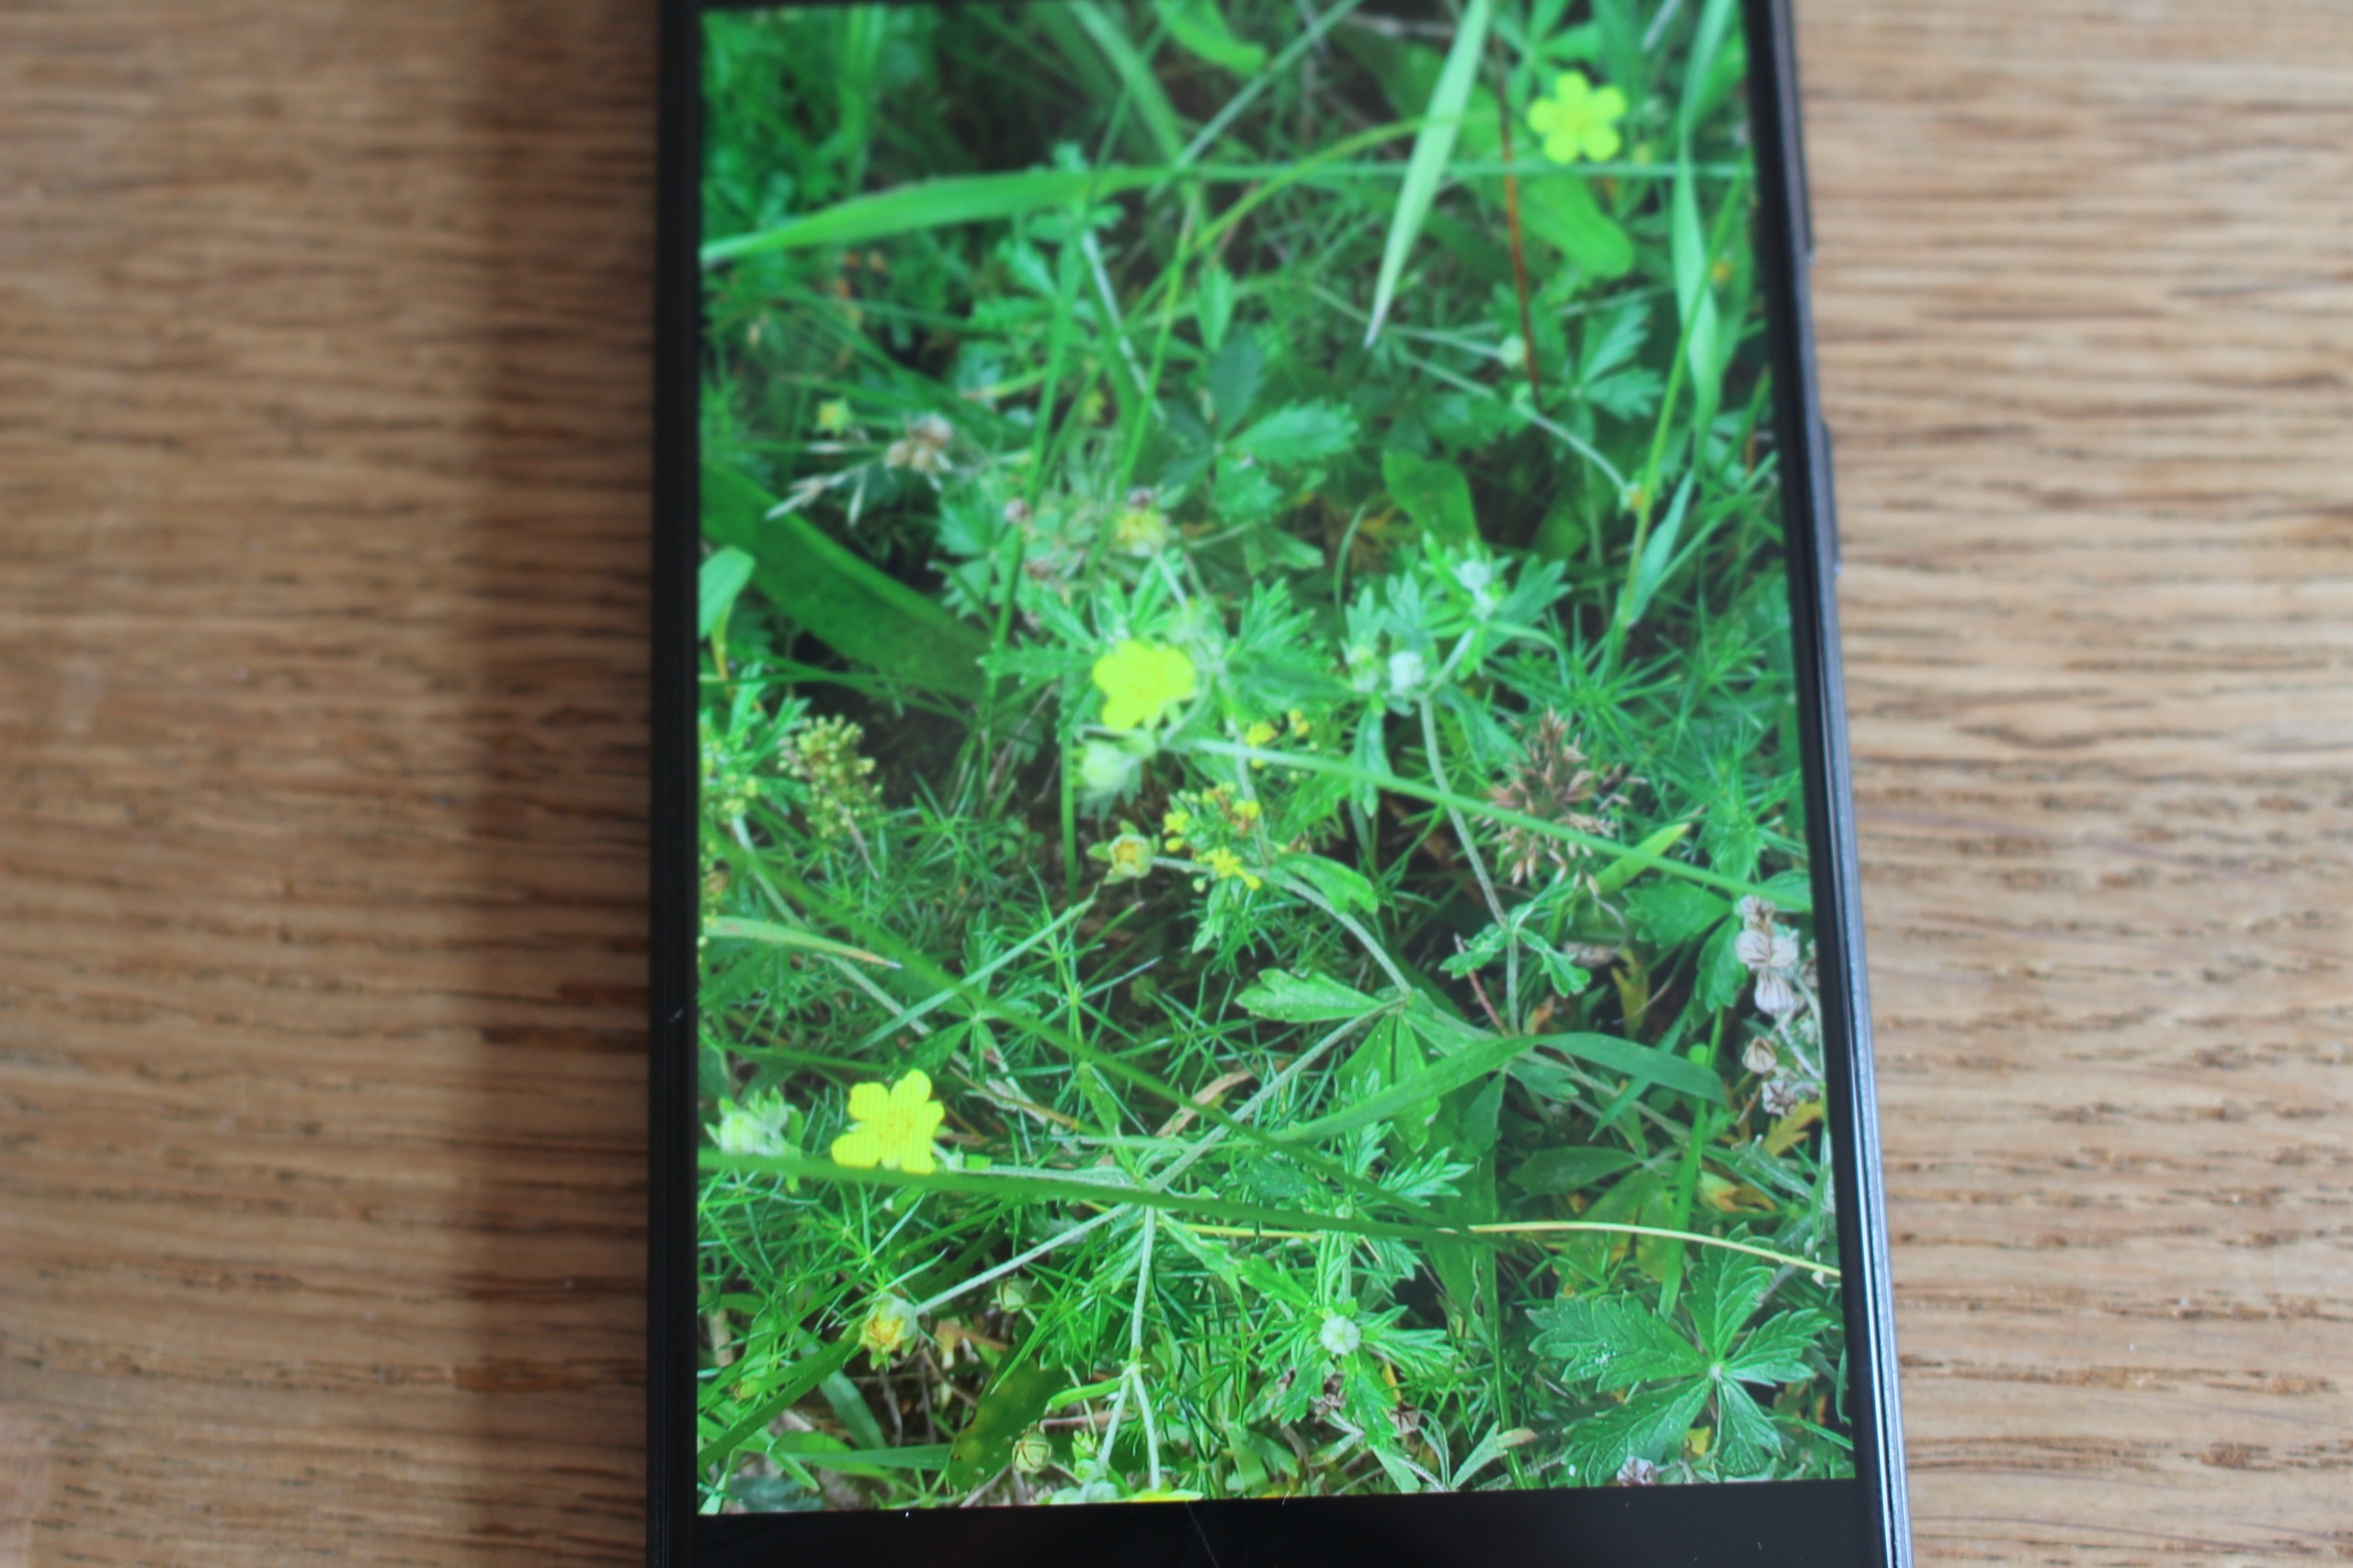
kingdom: Plantae
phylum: Tracheophyta
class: Magnoliopsida
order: Rosales
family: Rosaceae
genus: Potentilla
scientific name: Potentilla argentea
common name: Sølv-potentil
